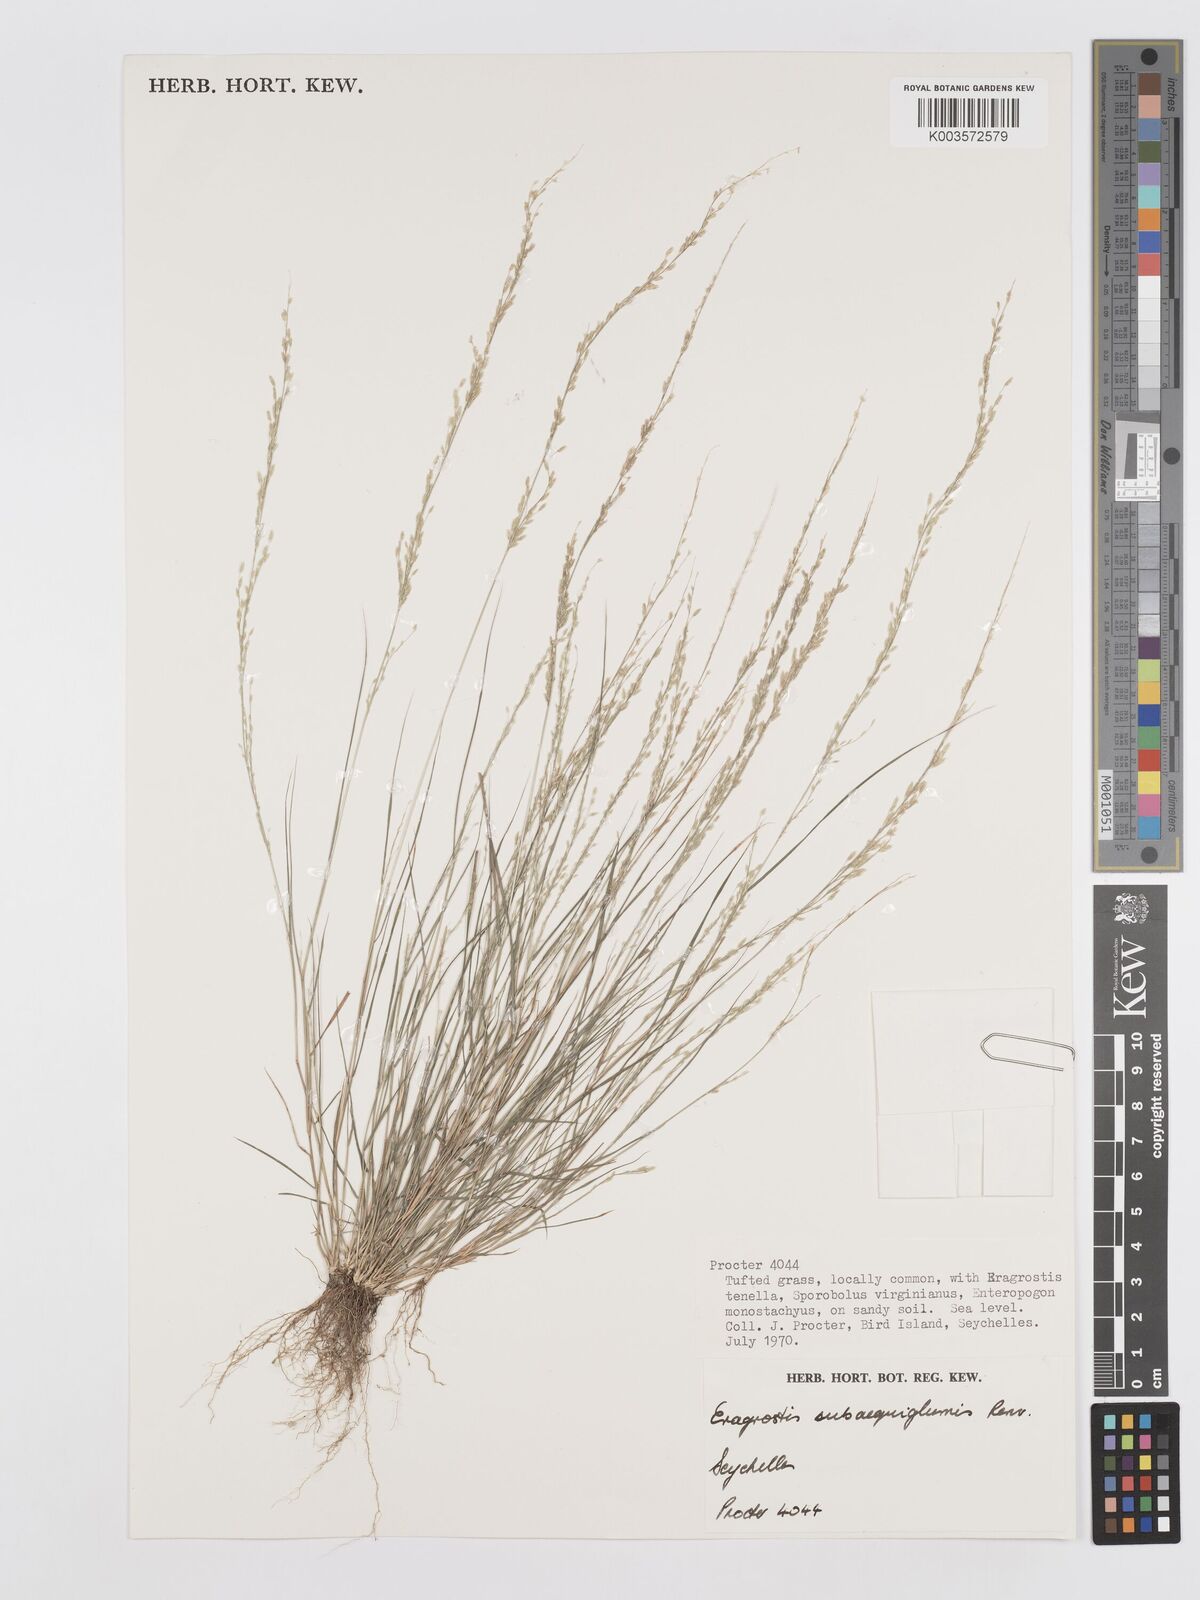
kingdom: Plantae
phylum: Tracheophyta
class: Liliopsida
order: Poales
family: Poaceae
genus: Eragrostis
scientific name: Eragrostis subaequiglumis
